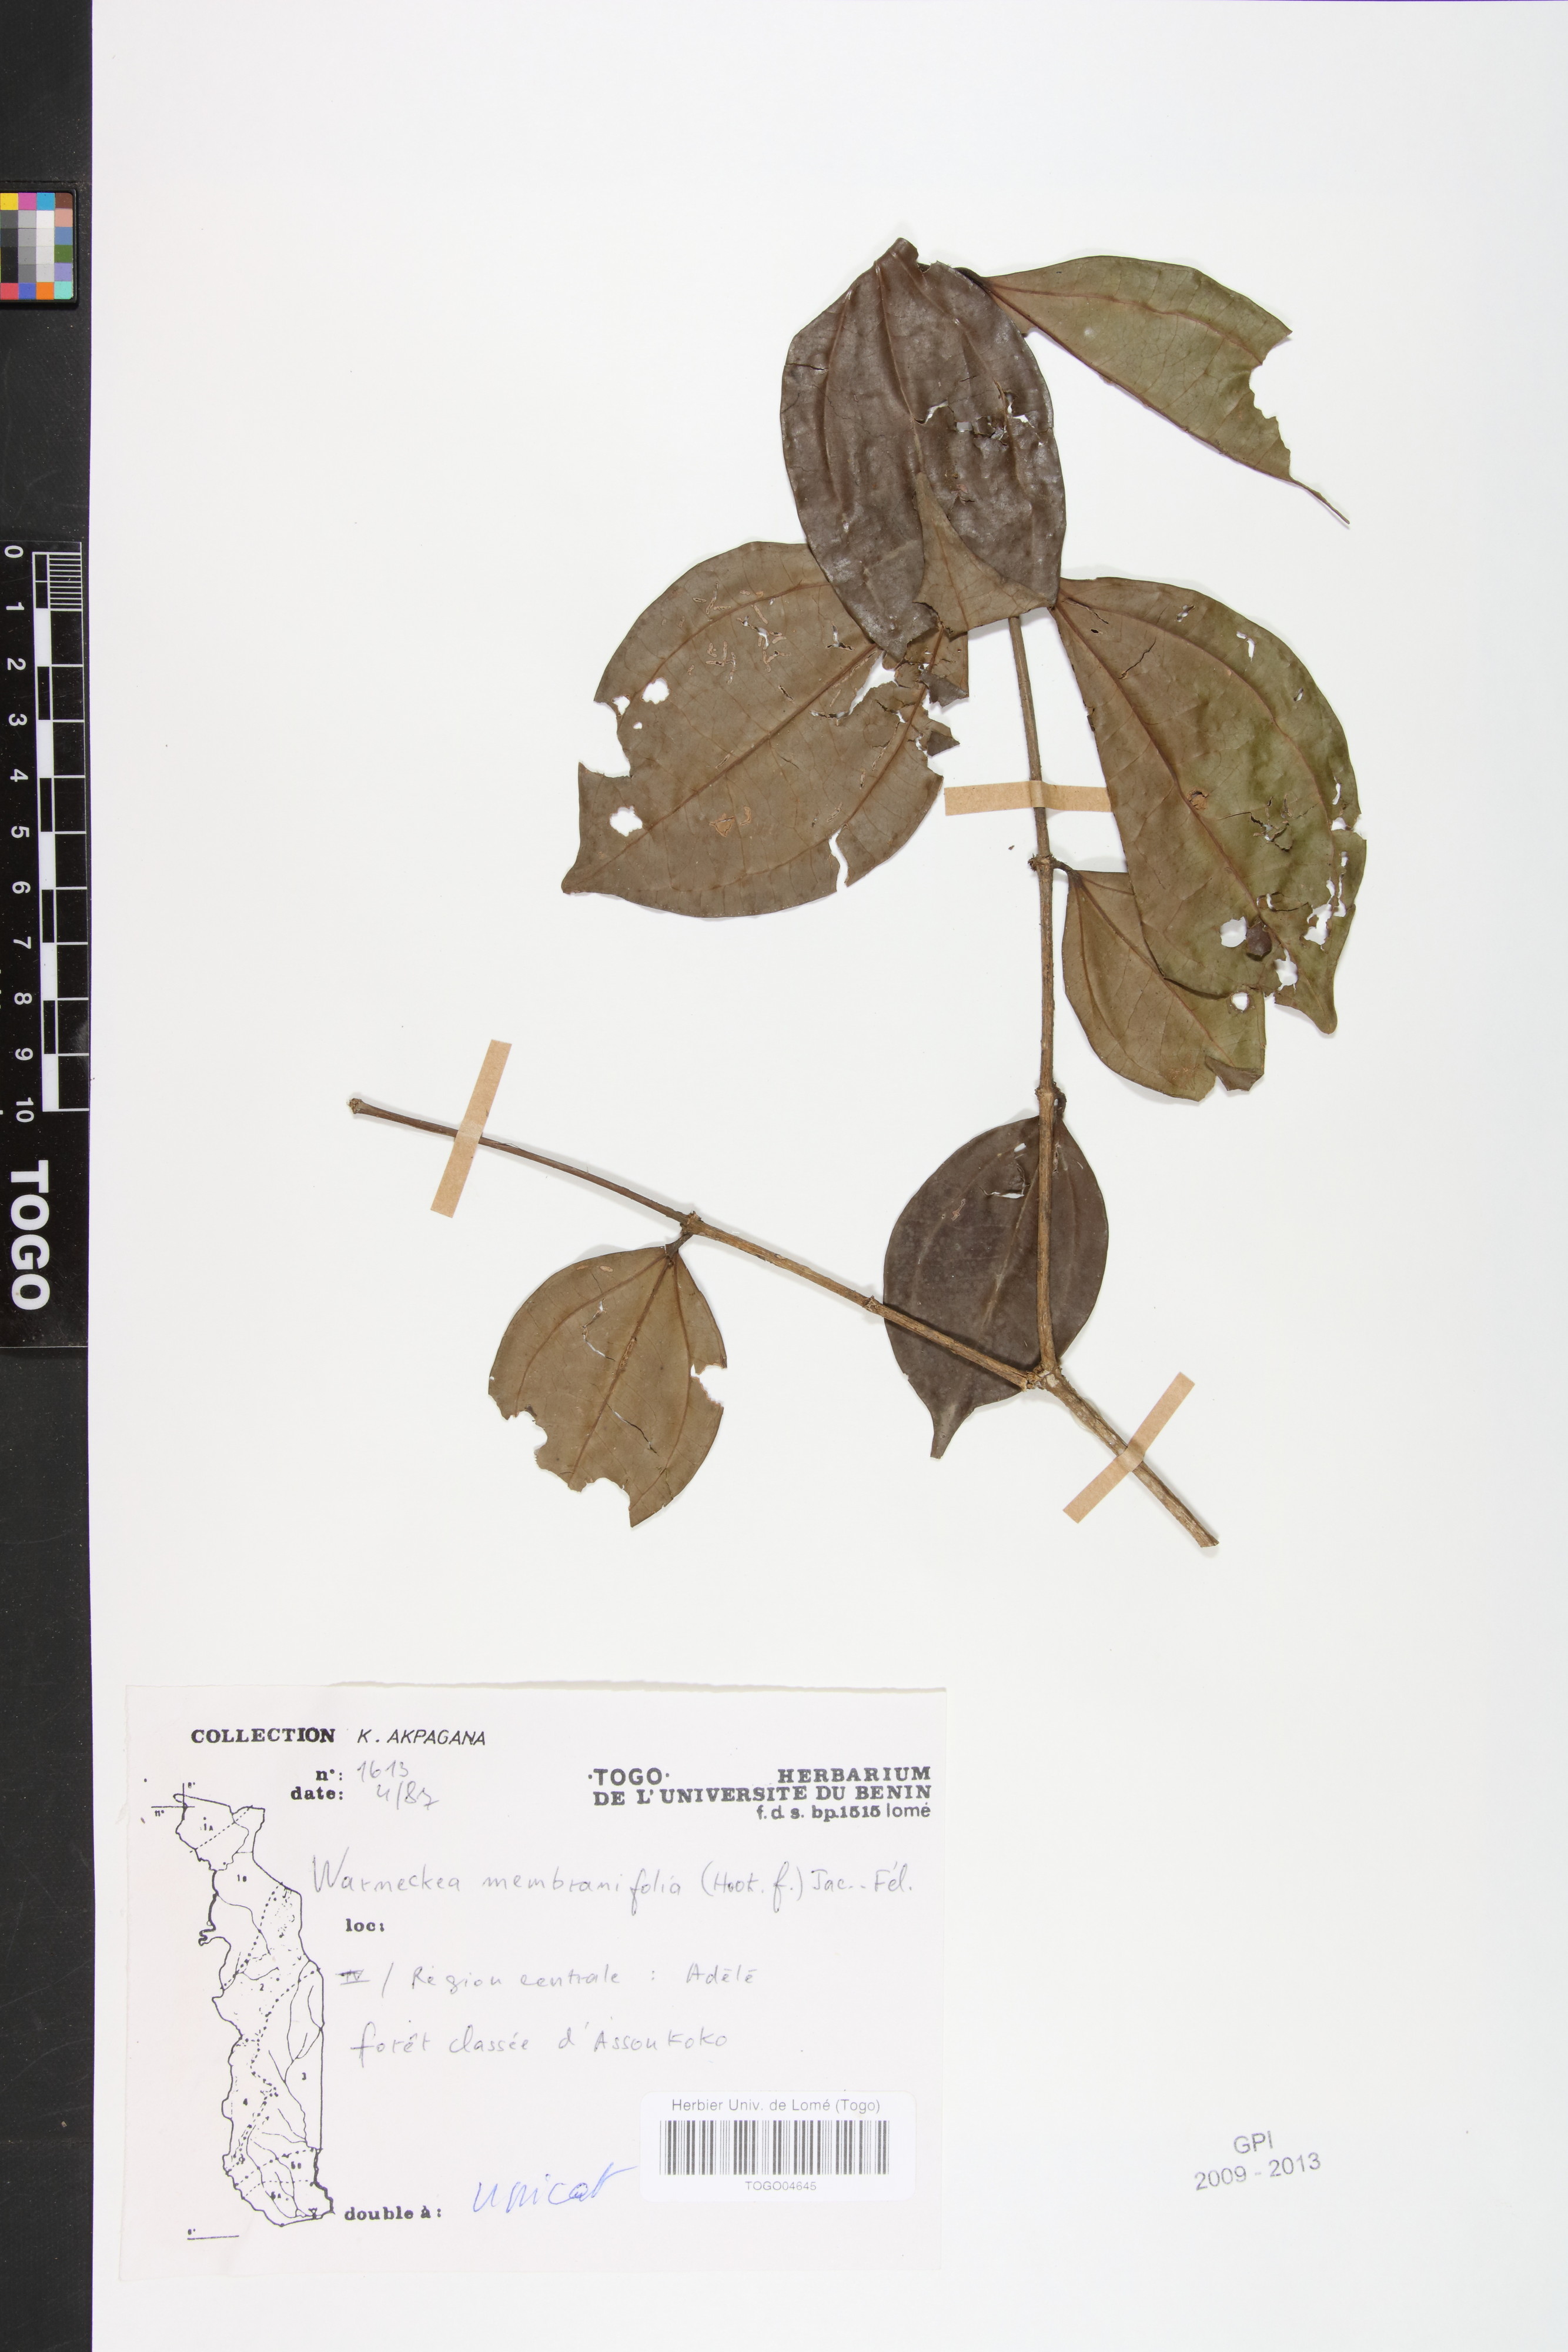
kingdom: Plantae
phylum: Tracheophyta
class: Magnoliopsida
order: Myrtales
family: Melastomataceae
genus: Warneckea
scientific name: Warneckea membranifolia
